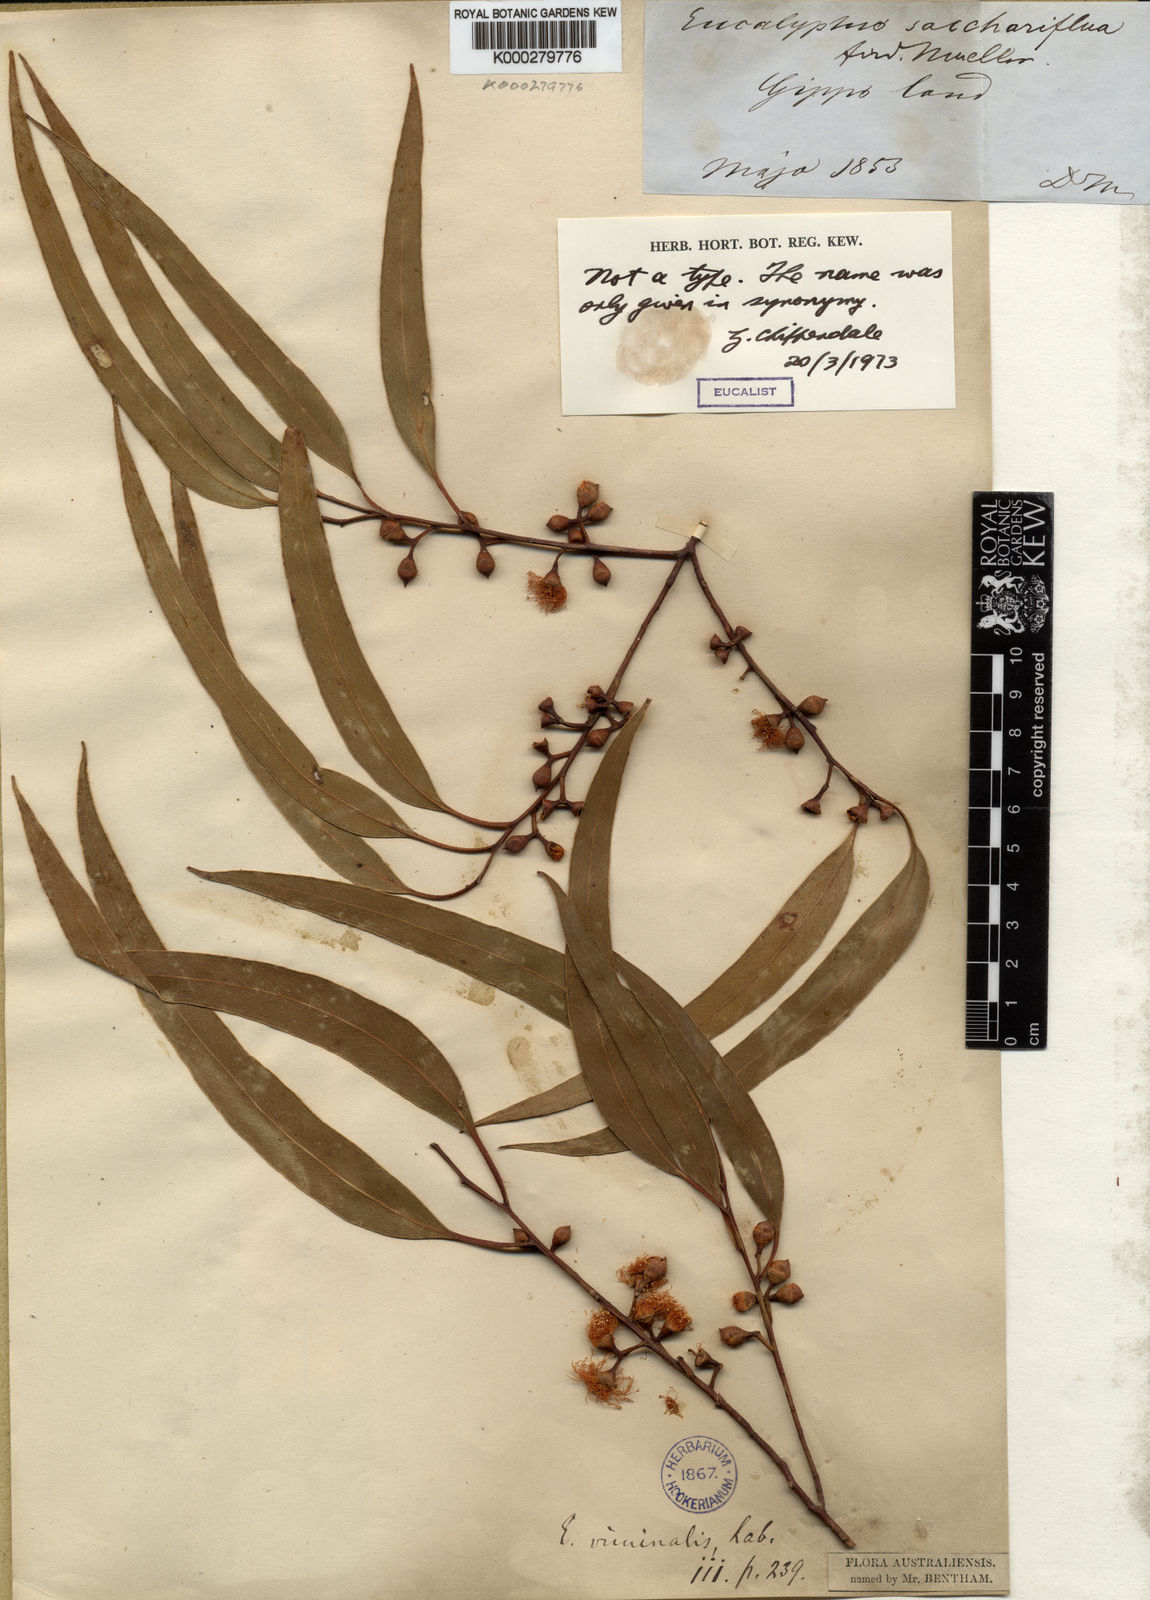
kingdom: Plantae
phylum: Tracheophyta
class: Magnoliopsida
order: Myrtales
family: Myrtaceae
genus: Eucalyptus
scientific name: Eucalyptus viminalis
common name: Manna gum
